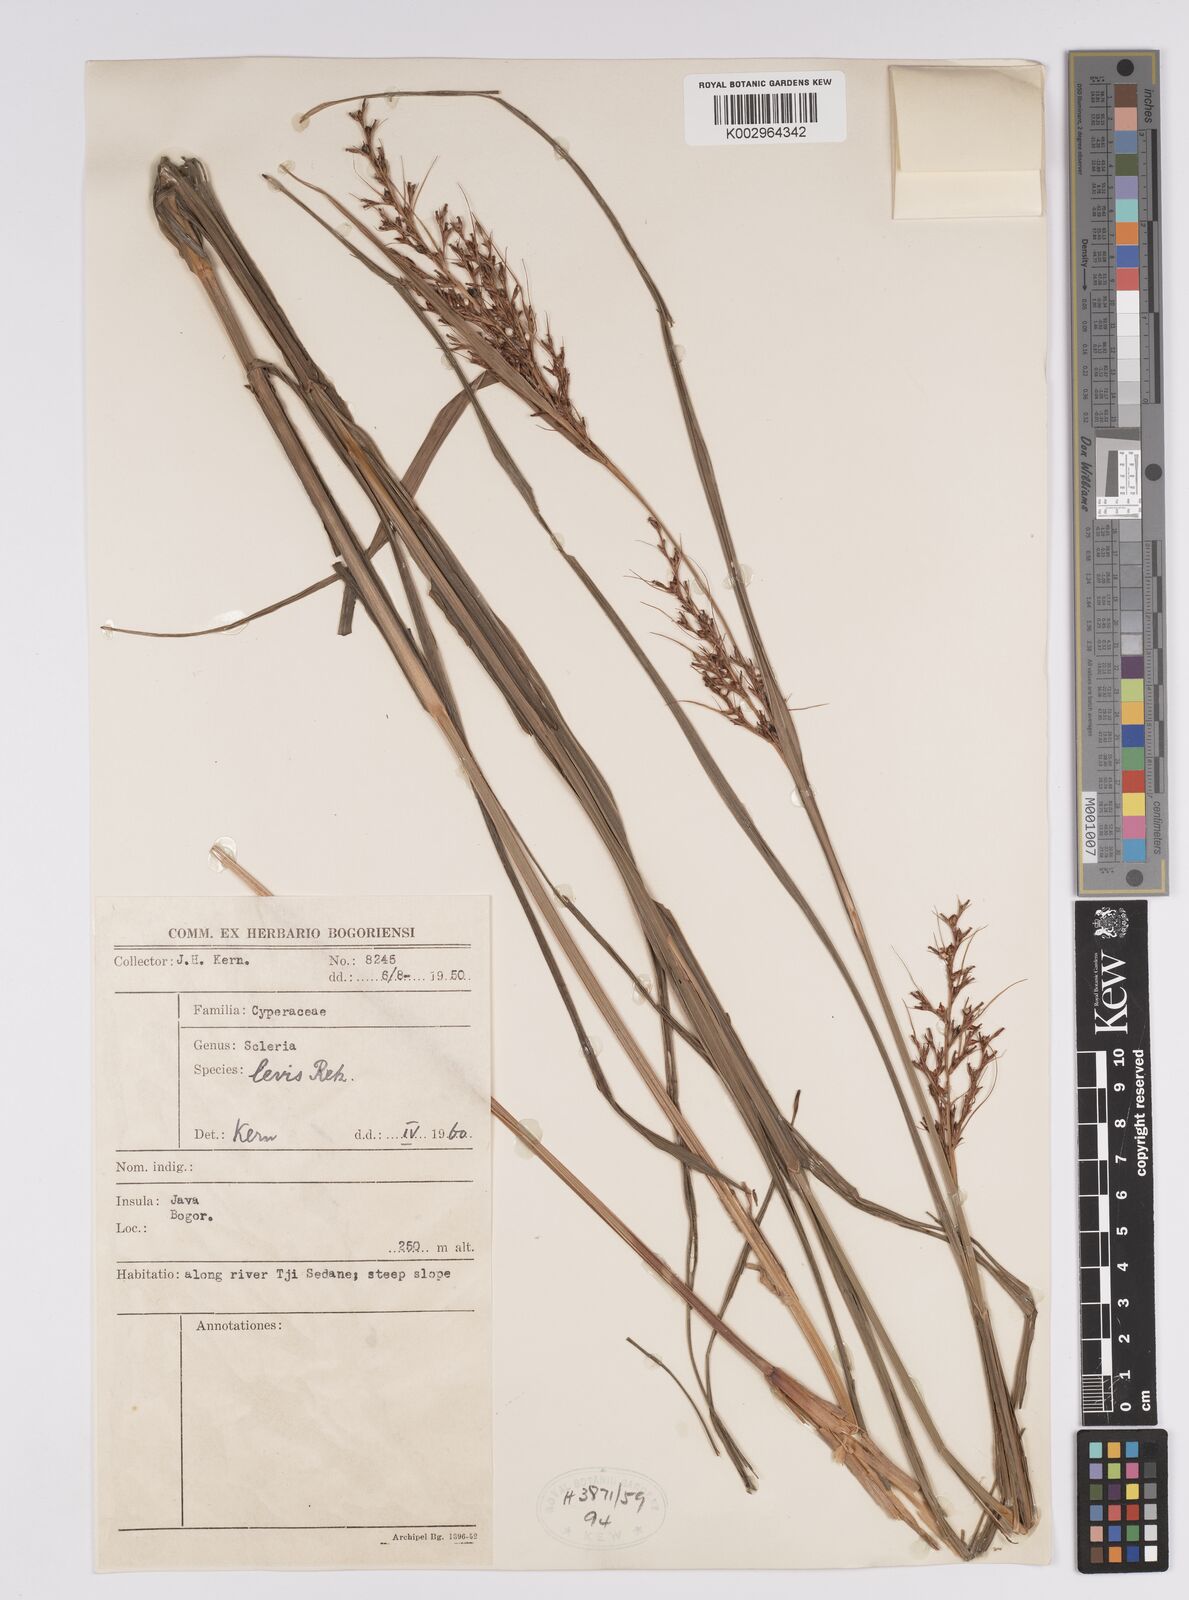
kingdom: Plantae
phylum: Tracheophyta
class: Liliopsida
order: Poales
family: Cyperaceae
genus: Scleria
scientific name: Scleria levis
